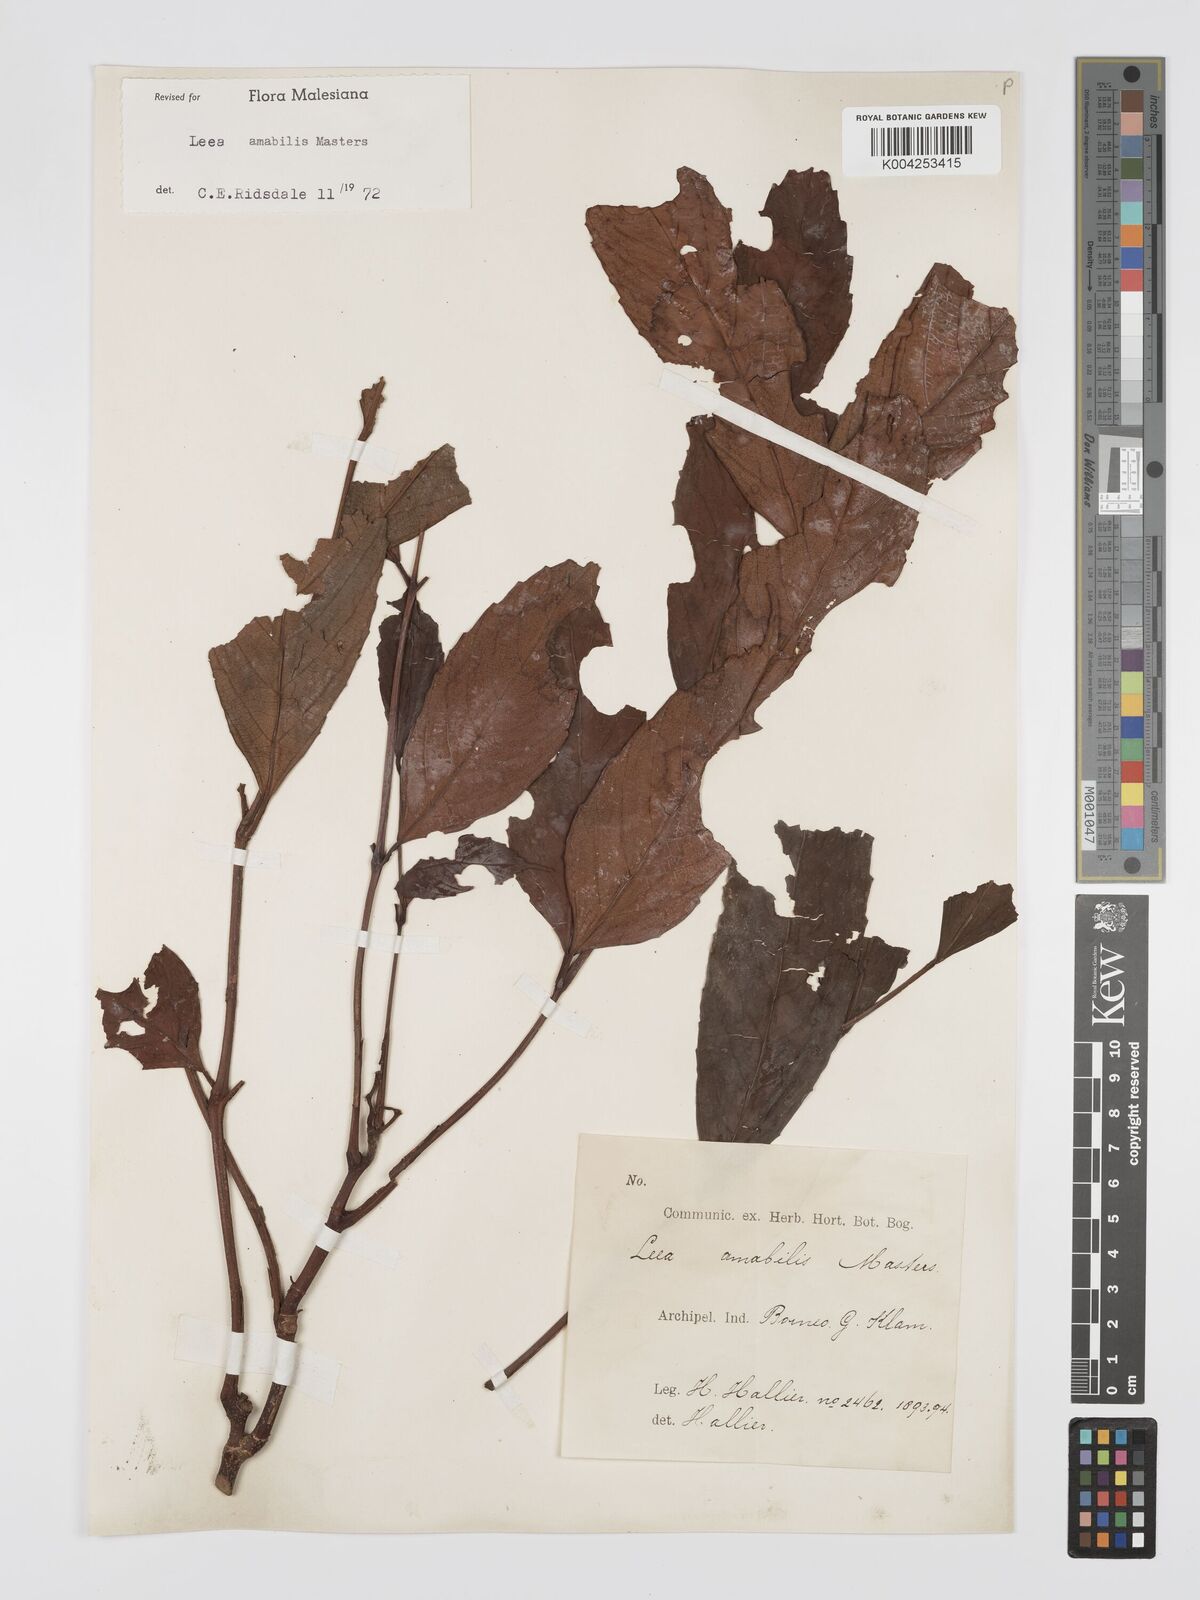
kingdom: Plantae
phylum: Tracheophyta
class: Magnoliopsida
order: Vitales
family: Vitaceae
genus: Leea
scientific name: Leea amabilis
